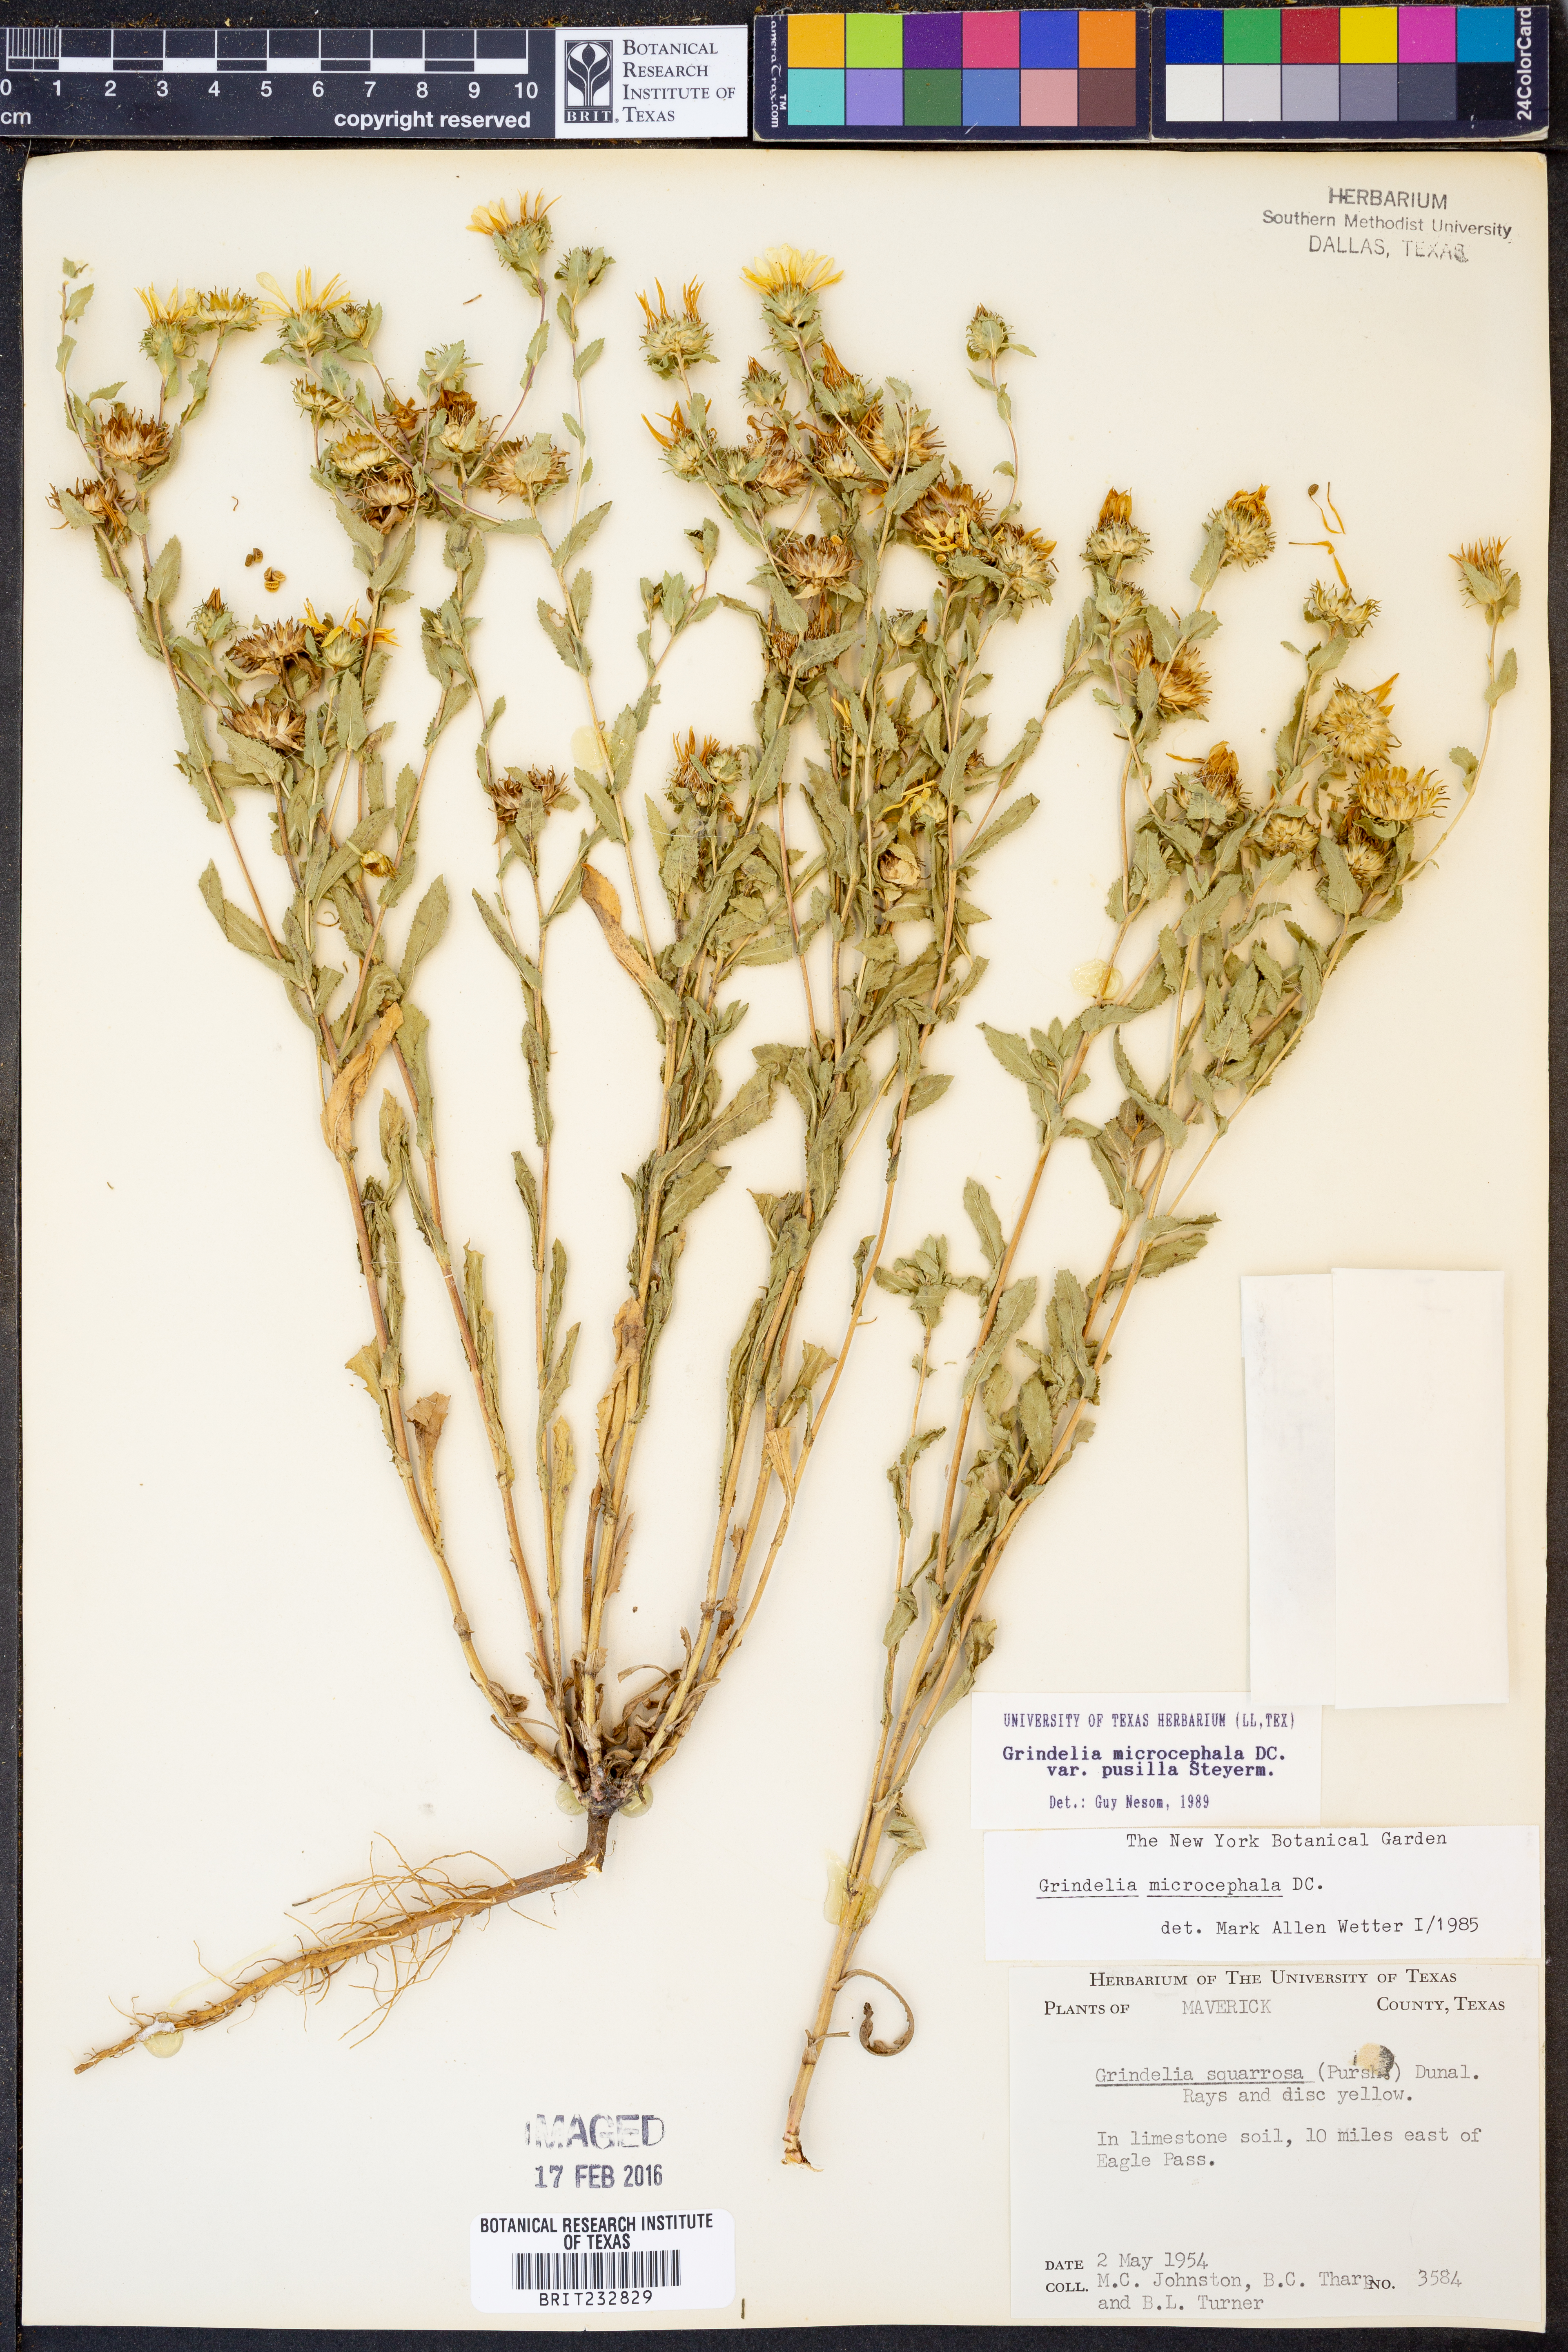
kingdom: Plantae
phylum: Tracheophyta
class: Magnoliopsida
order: Asterales
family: Asteraceae
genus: Grindelia
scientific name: Grindelia pusilla
